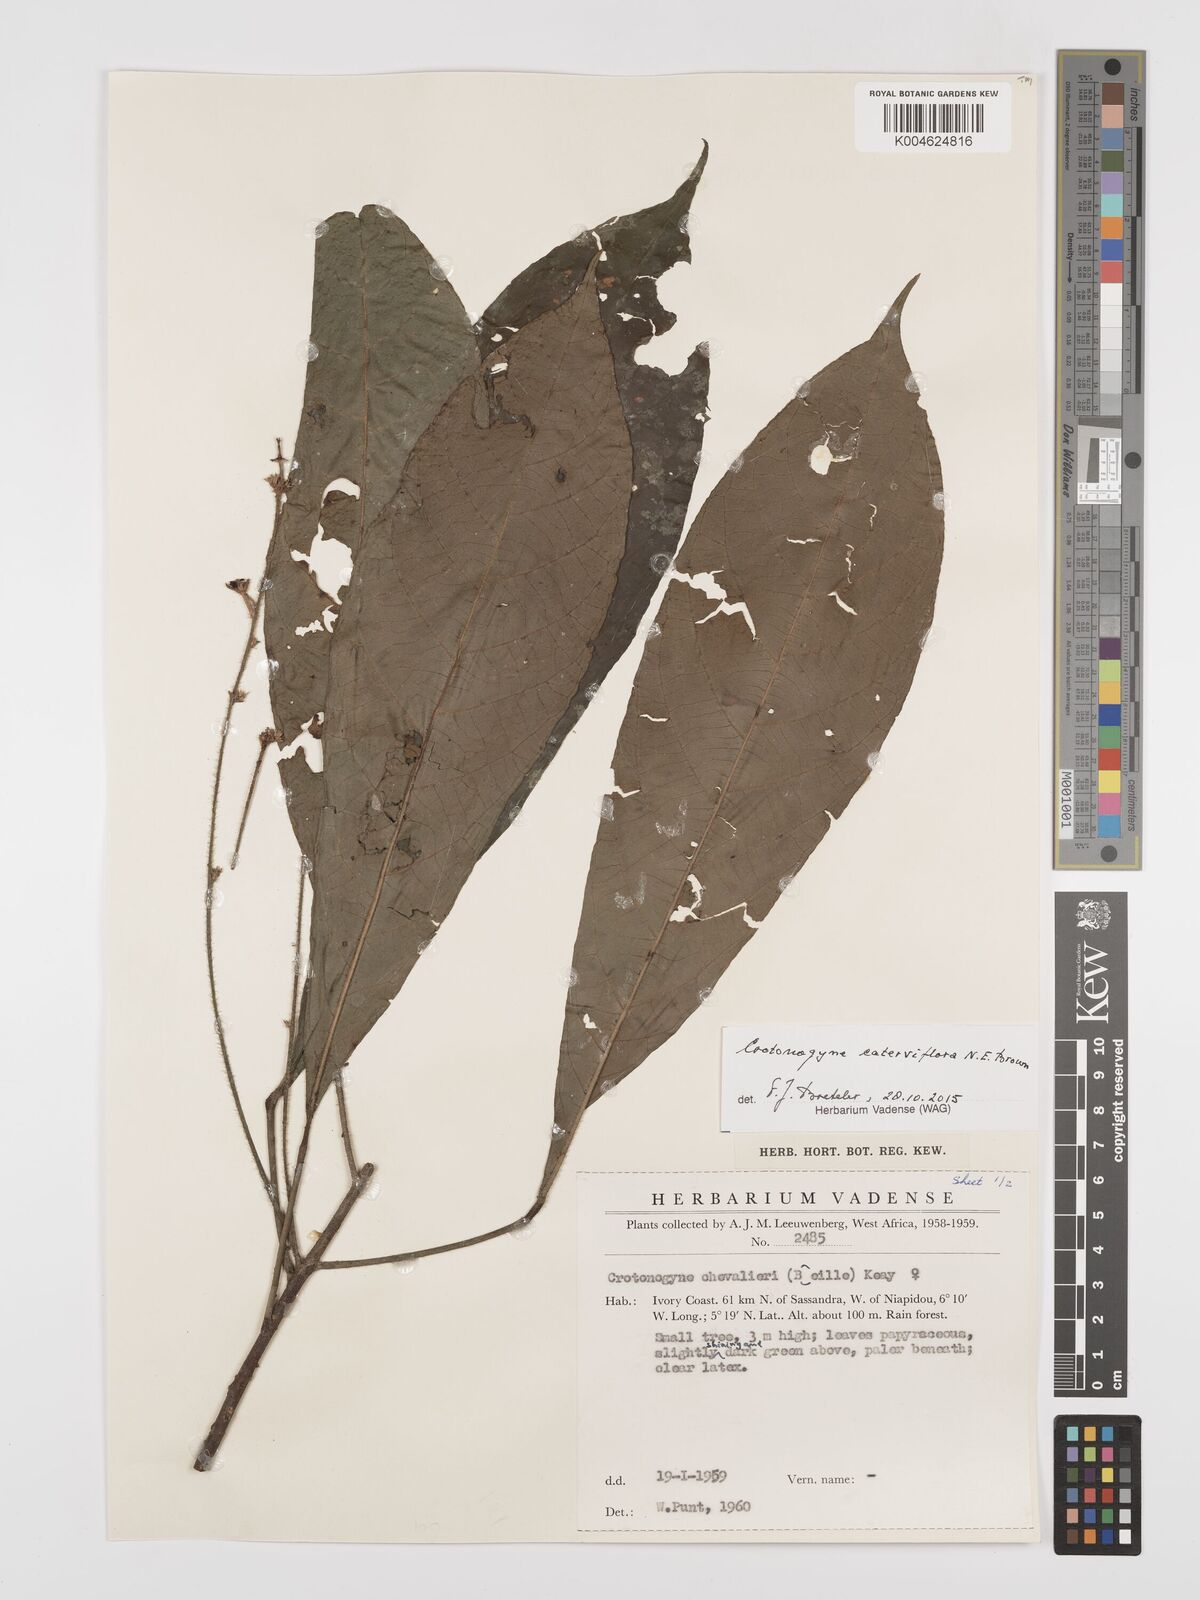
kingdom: Plantae
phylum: Tracheophyta
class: Magnoliopsida
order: Malpighiales
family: Euphorbiaceae
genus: Crotonogyne
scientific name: Crotonogyne caterviflora
